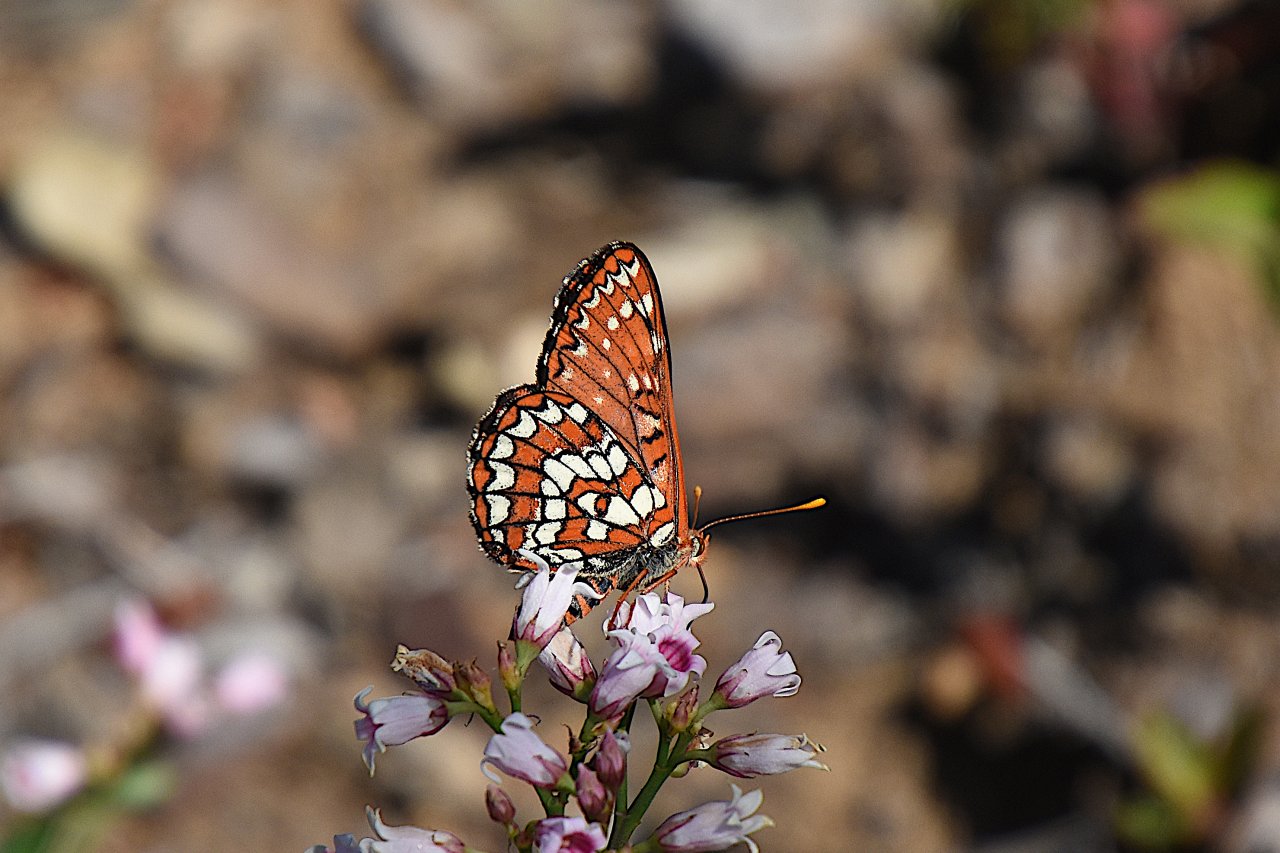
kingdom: Animalia
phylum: Arthropoda
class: Insecta
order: Lepidoptera
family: Nymphalidae
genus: Occidryas
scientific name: Occidryas colon
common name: Snowberry Checkerspot
